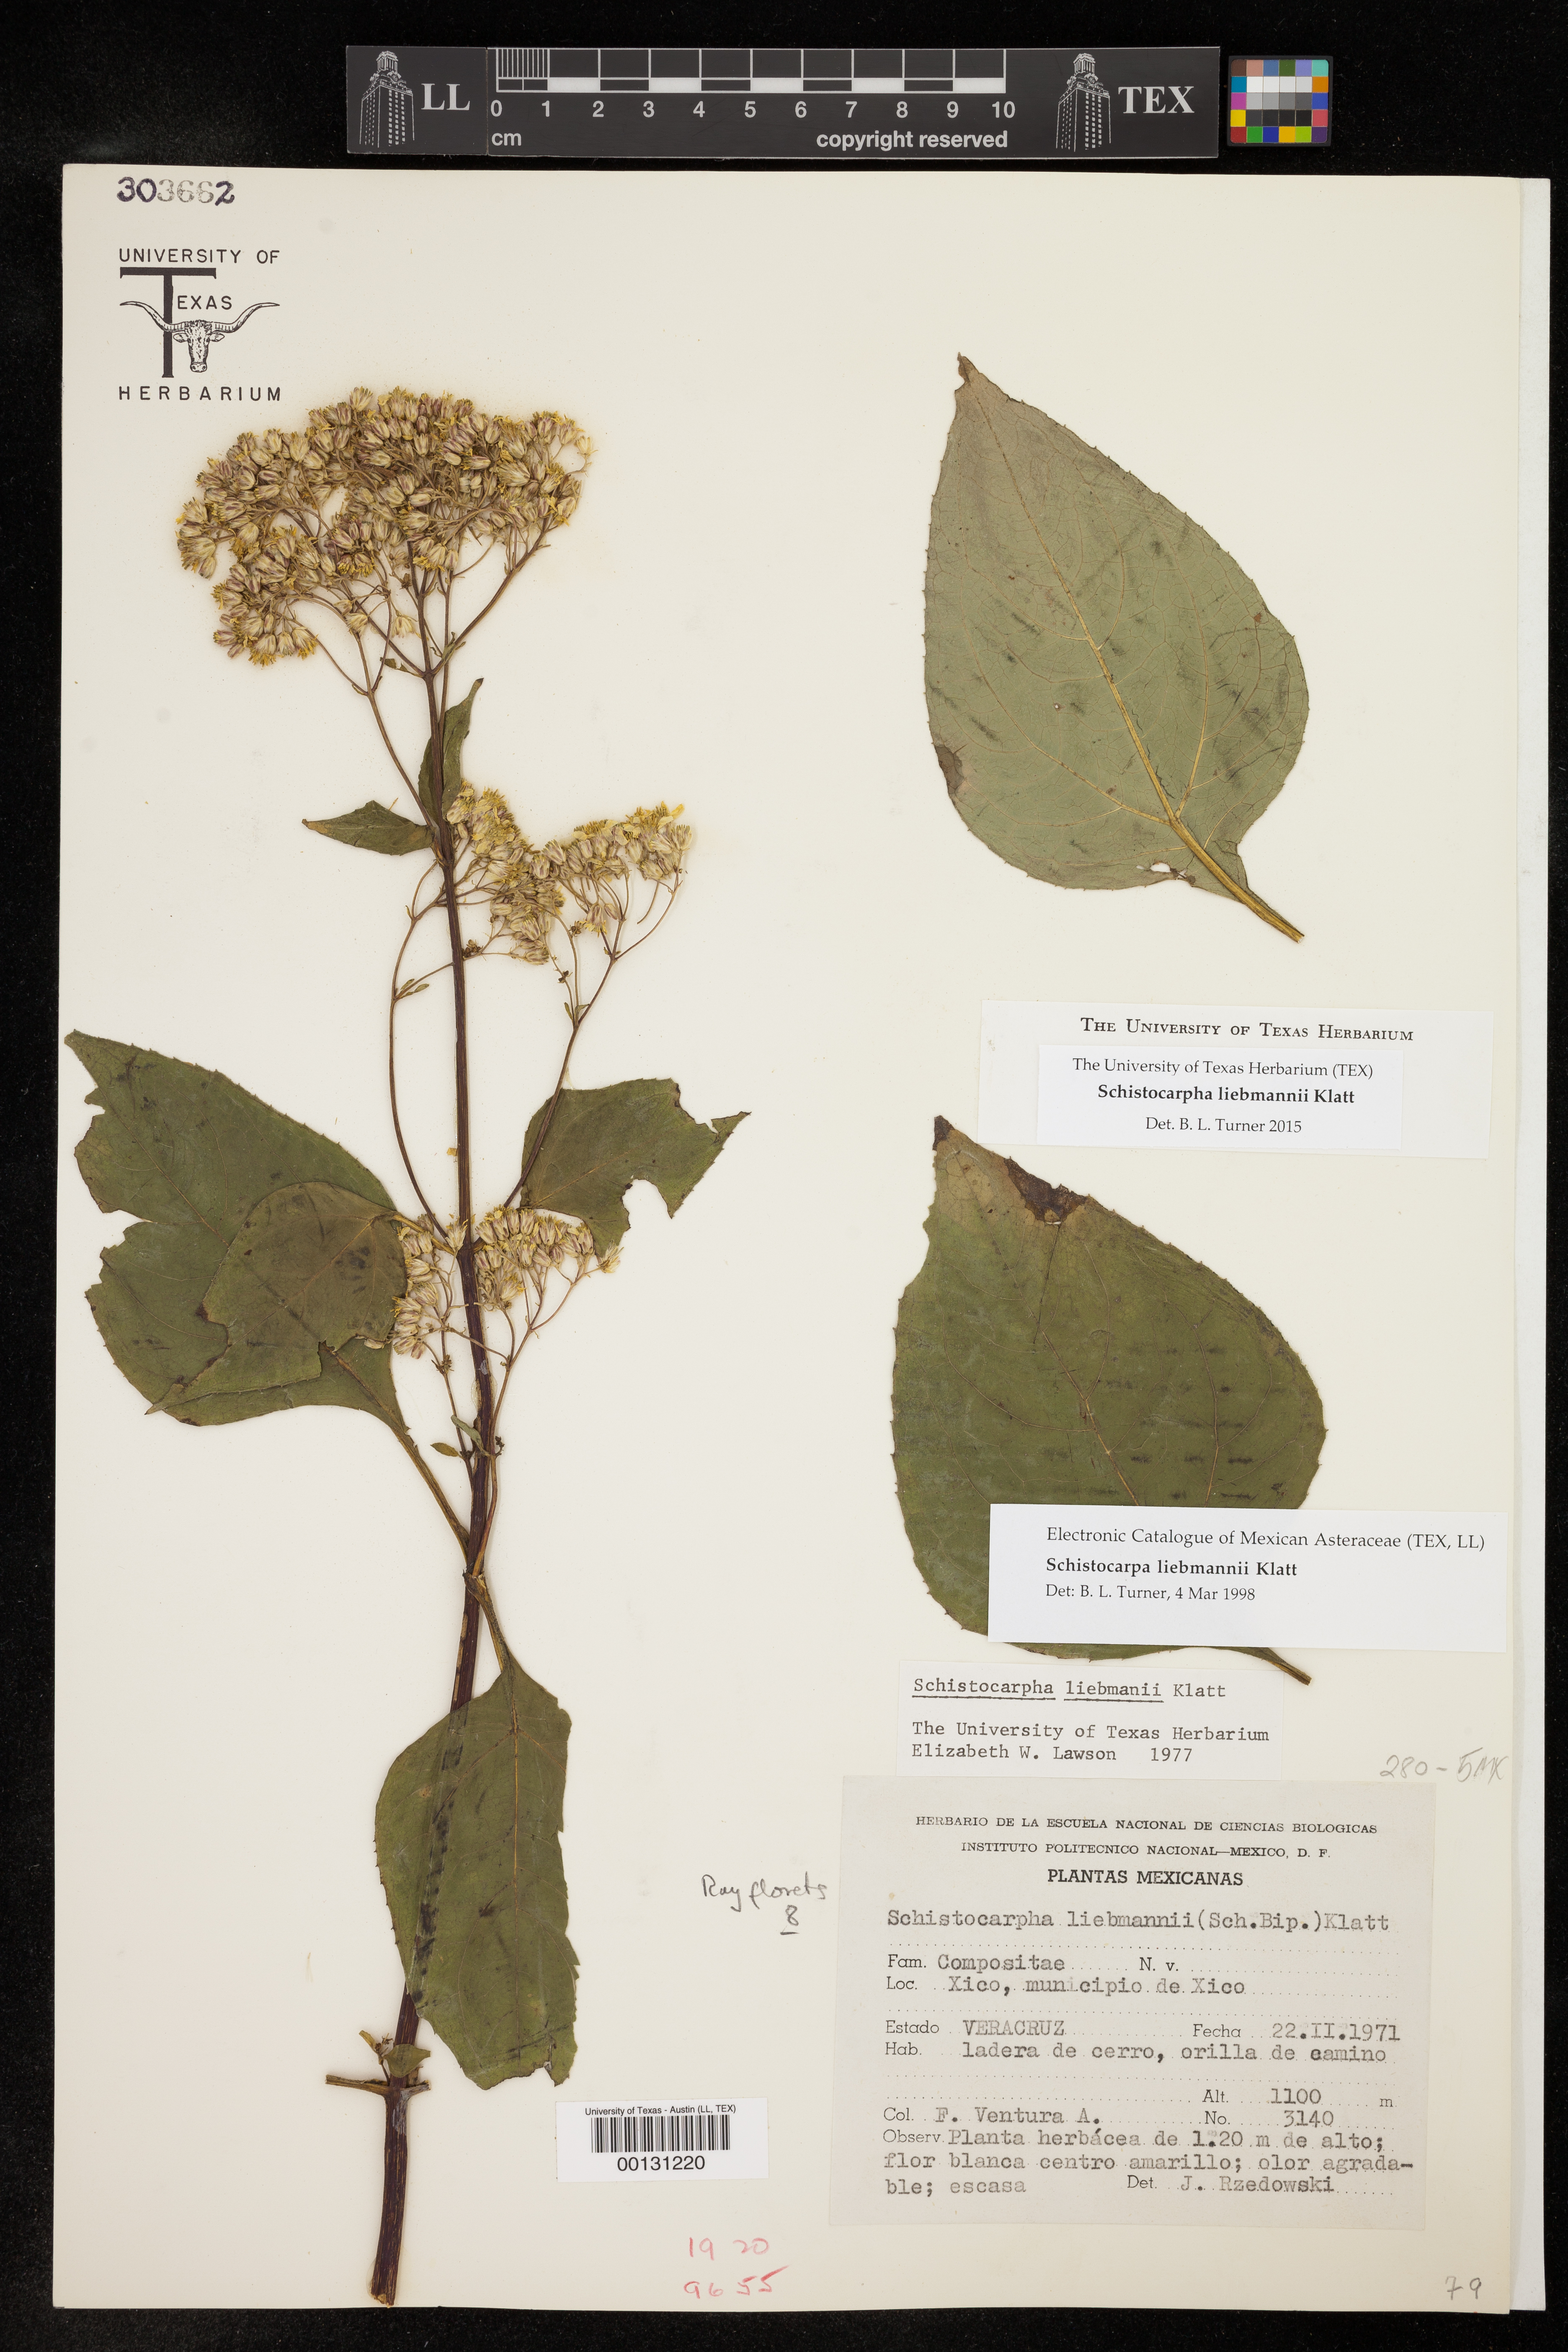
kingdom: Plantae
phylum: Tracheophyta
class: Magnoliopsida
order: Asterales
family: Asteraceae
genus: Schistocarpha
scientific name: Schistocarpha liebmannii
